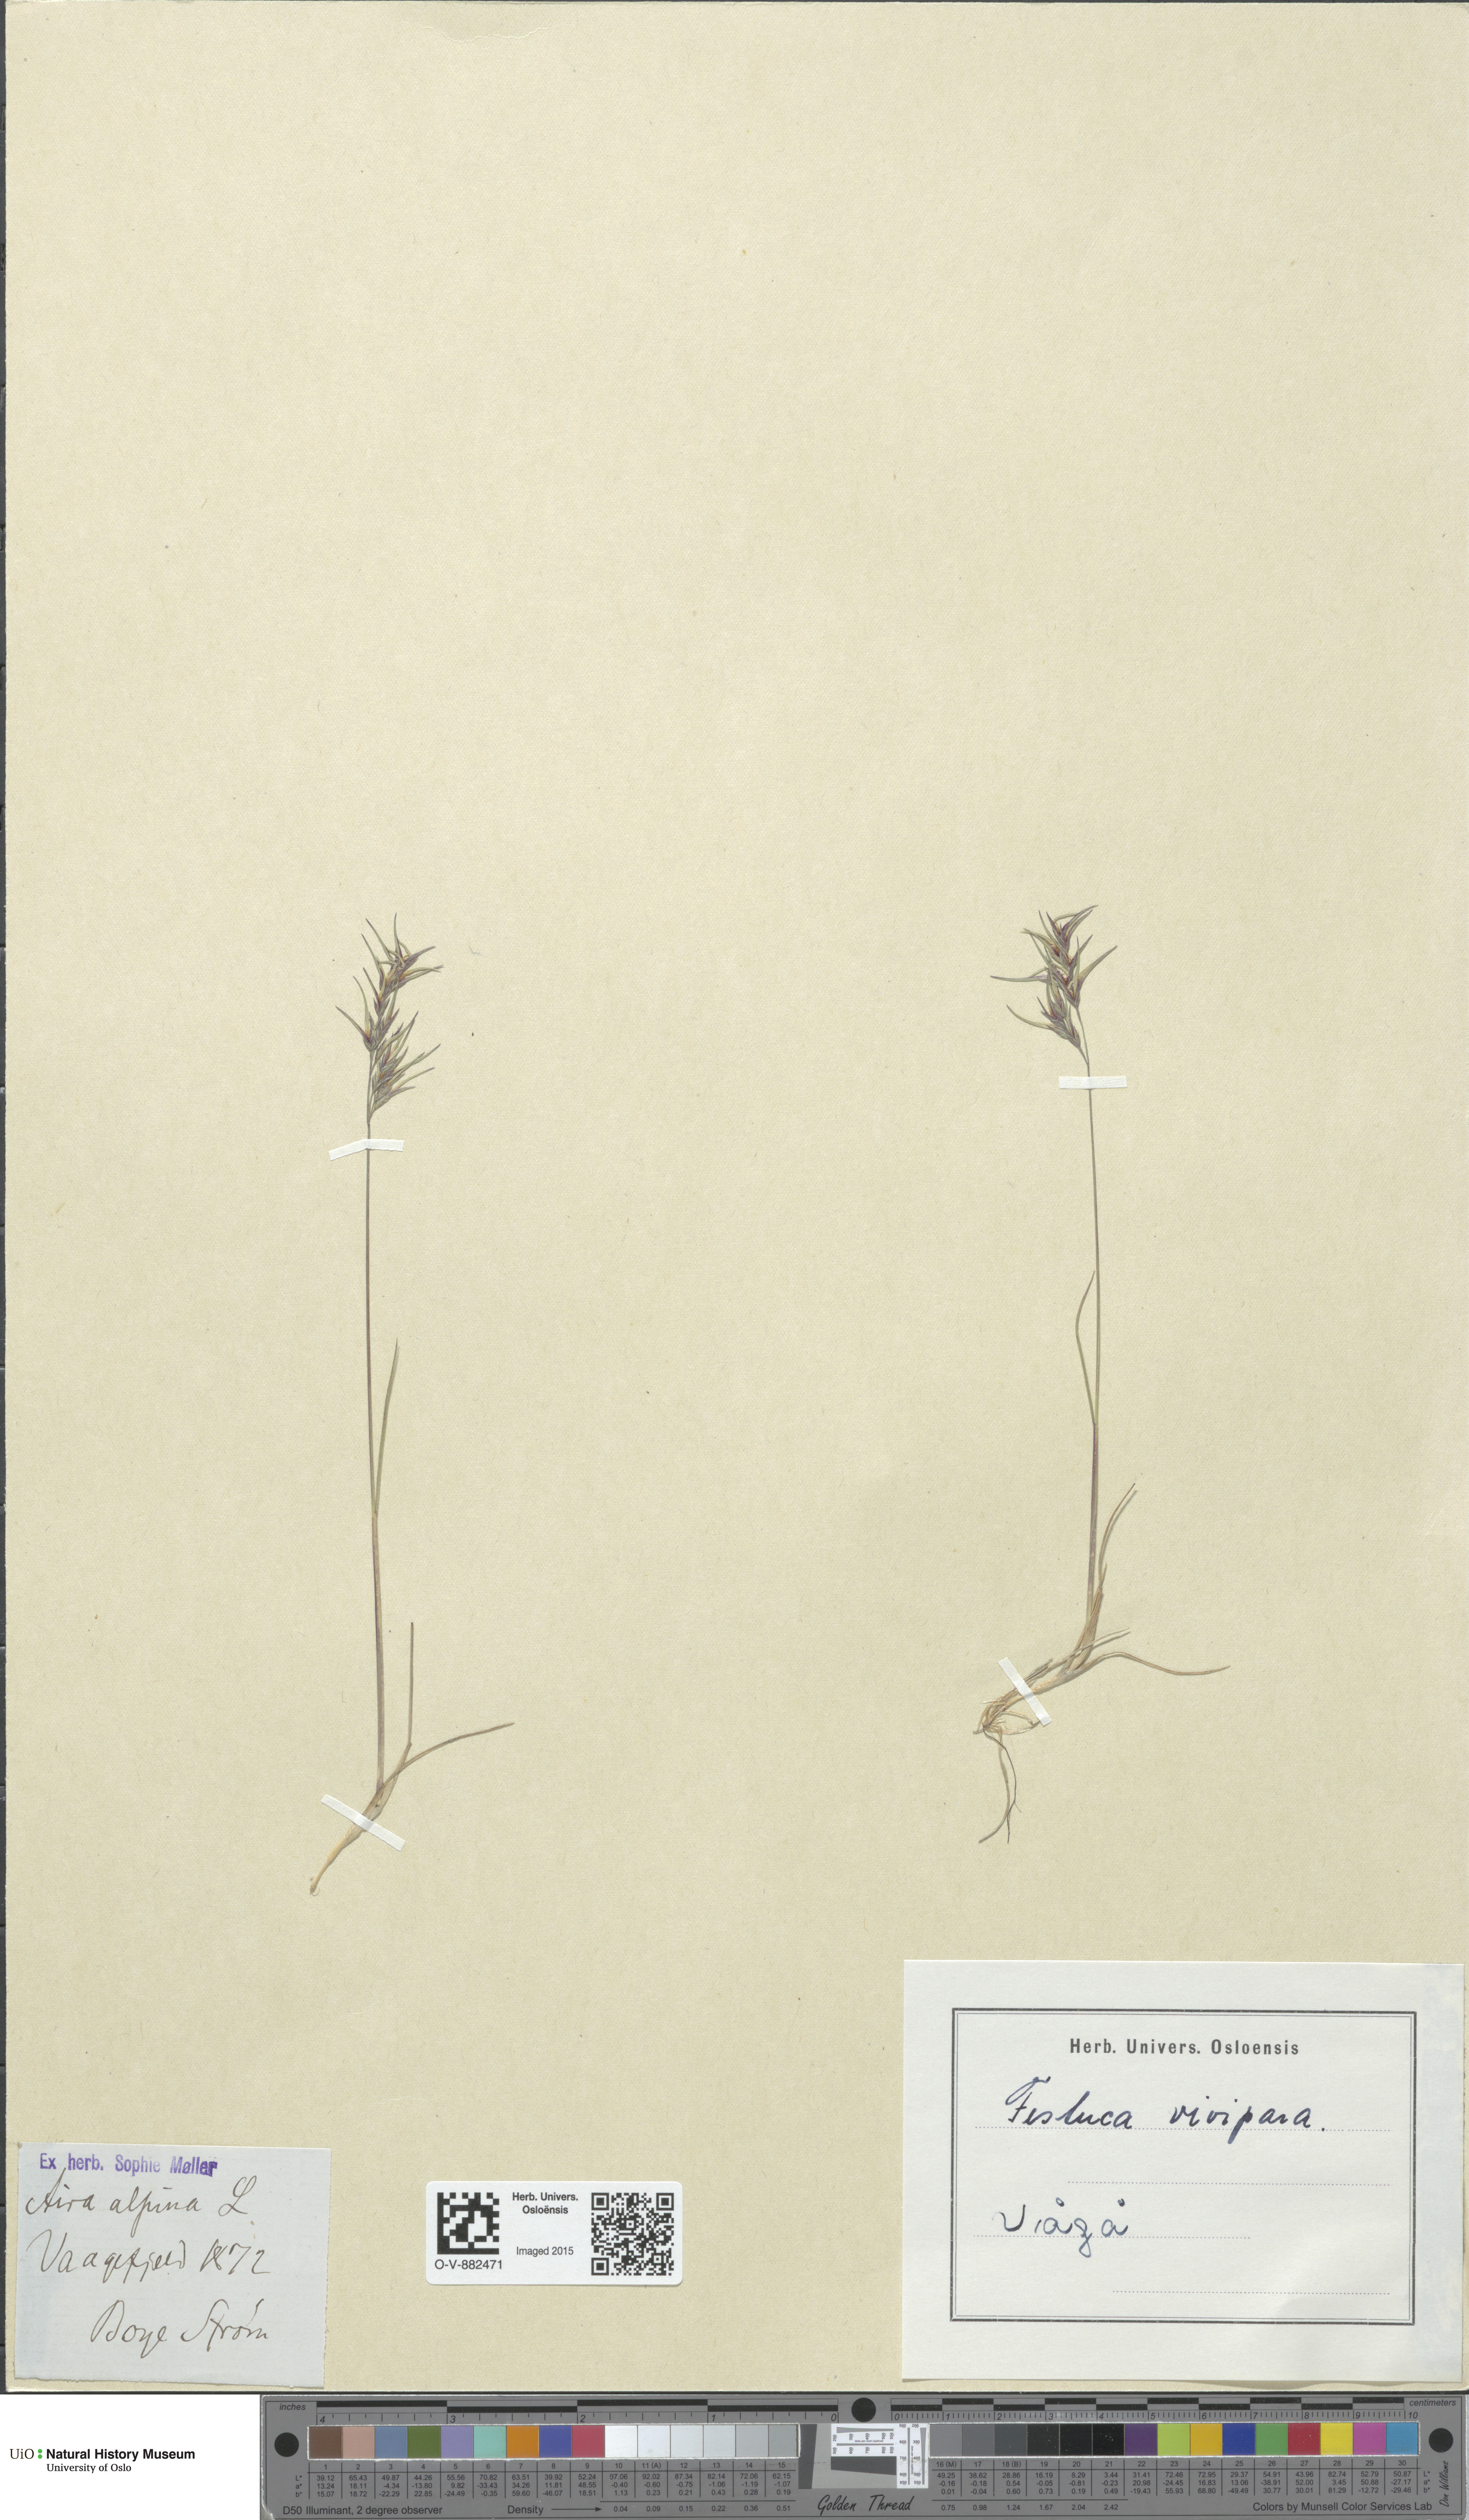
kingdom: Plantae
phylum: Tracheophyta
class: Liliopsida
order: Poales
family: Poaceae
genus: Festuca
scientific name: Festuca vivipara
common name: Viviparous sheep's-fescue
